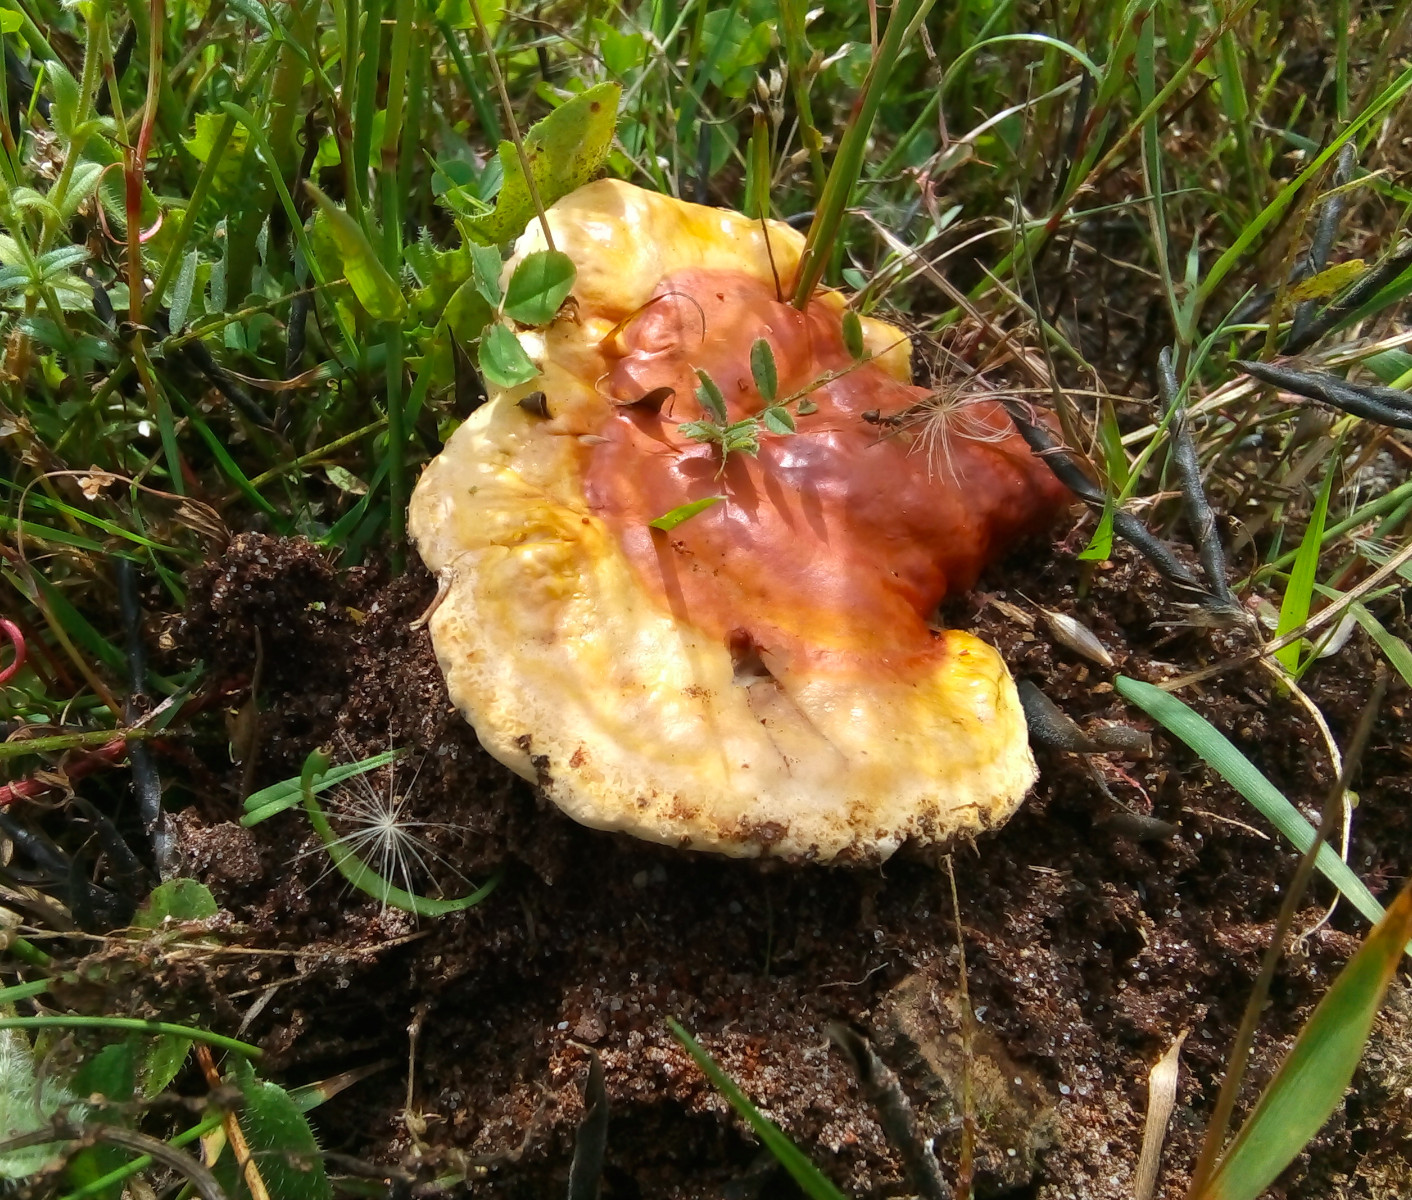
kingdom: Fungi
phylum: Basidiomycota
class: Agaricomycetes
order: Polyporales
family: Polyporaceae
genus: Ganoderma
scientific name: Ganoderma lucidum
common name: skinnende lakporesvamp
